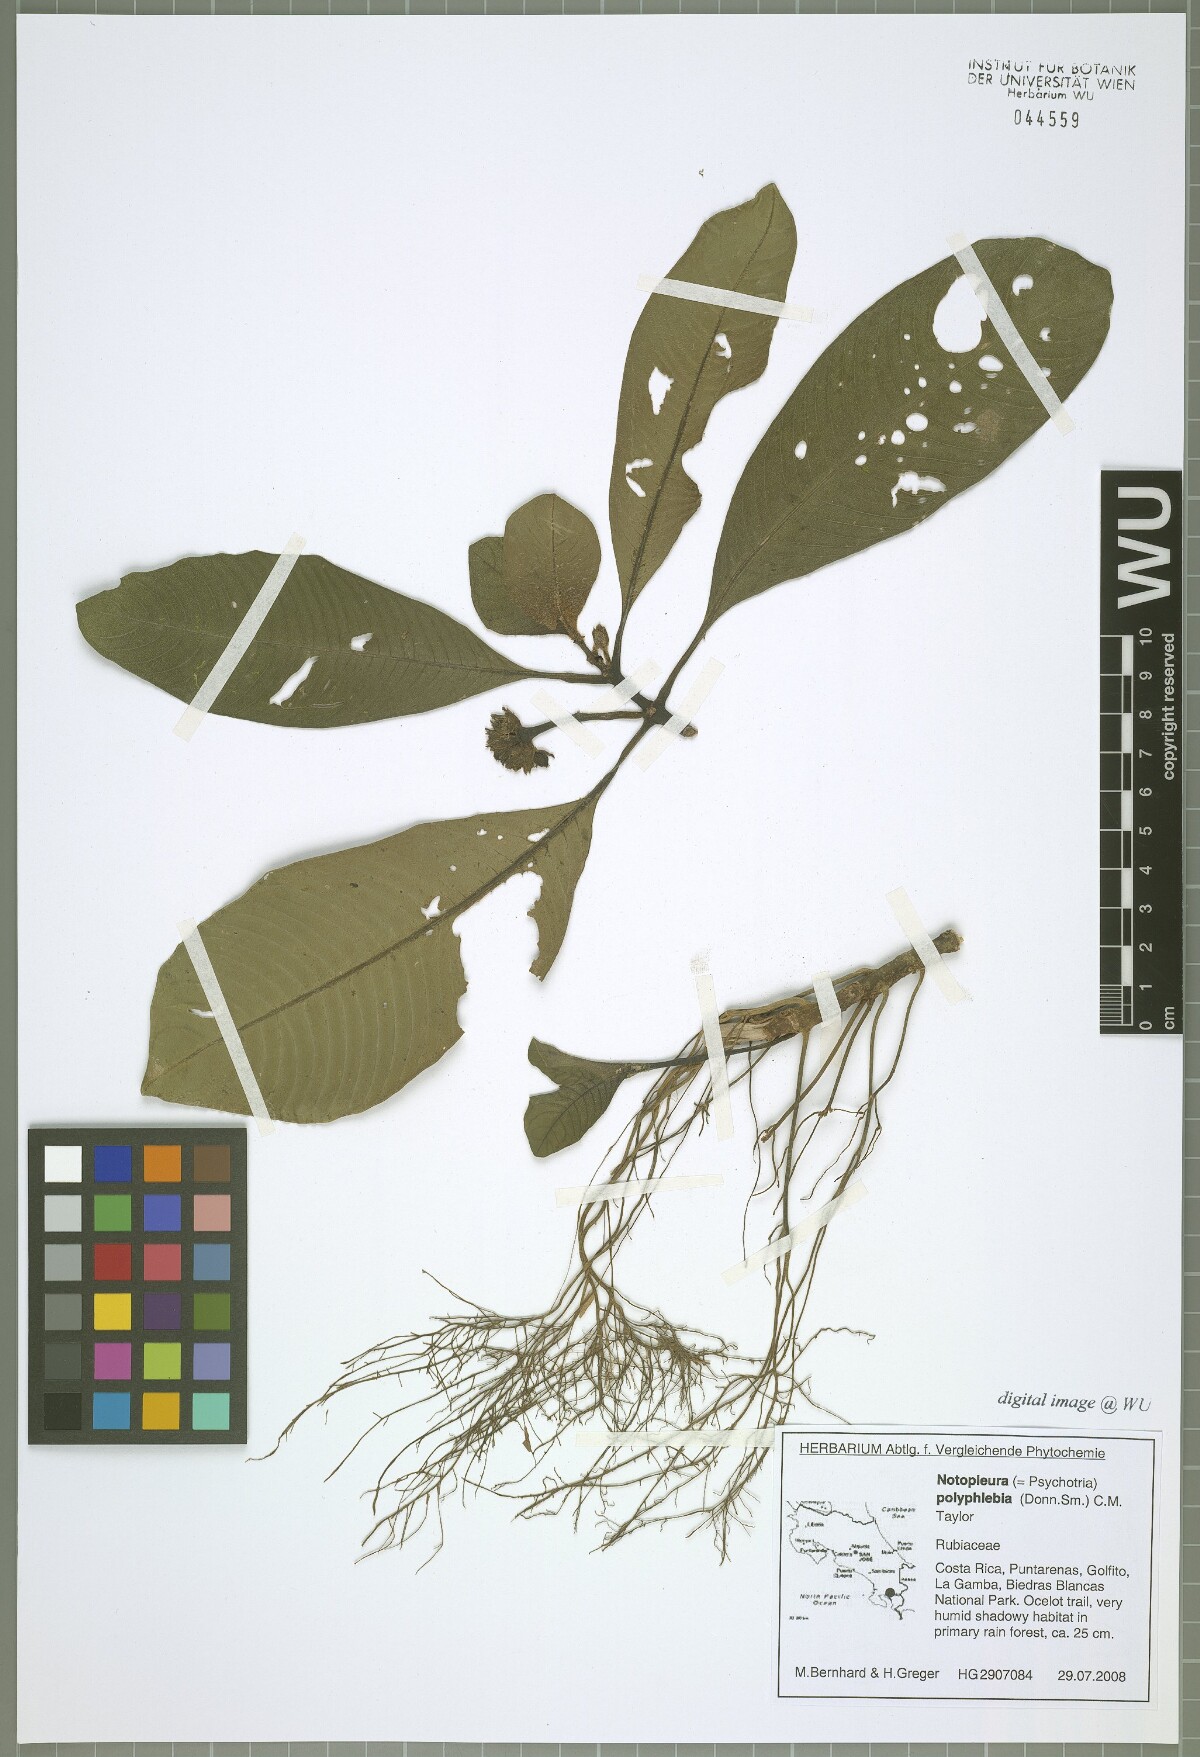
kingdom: Plantae
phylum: Tracheophyta
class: Magnoliopsida
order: Gentianales
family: Rubiaceae
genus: Notopleura
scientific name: Notopleura polyphlebia
